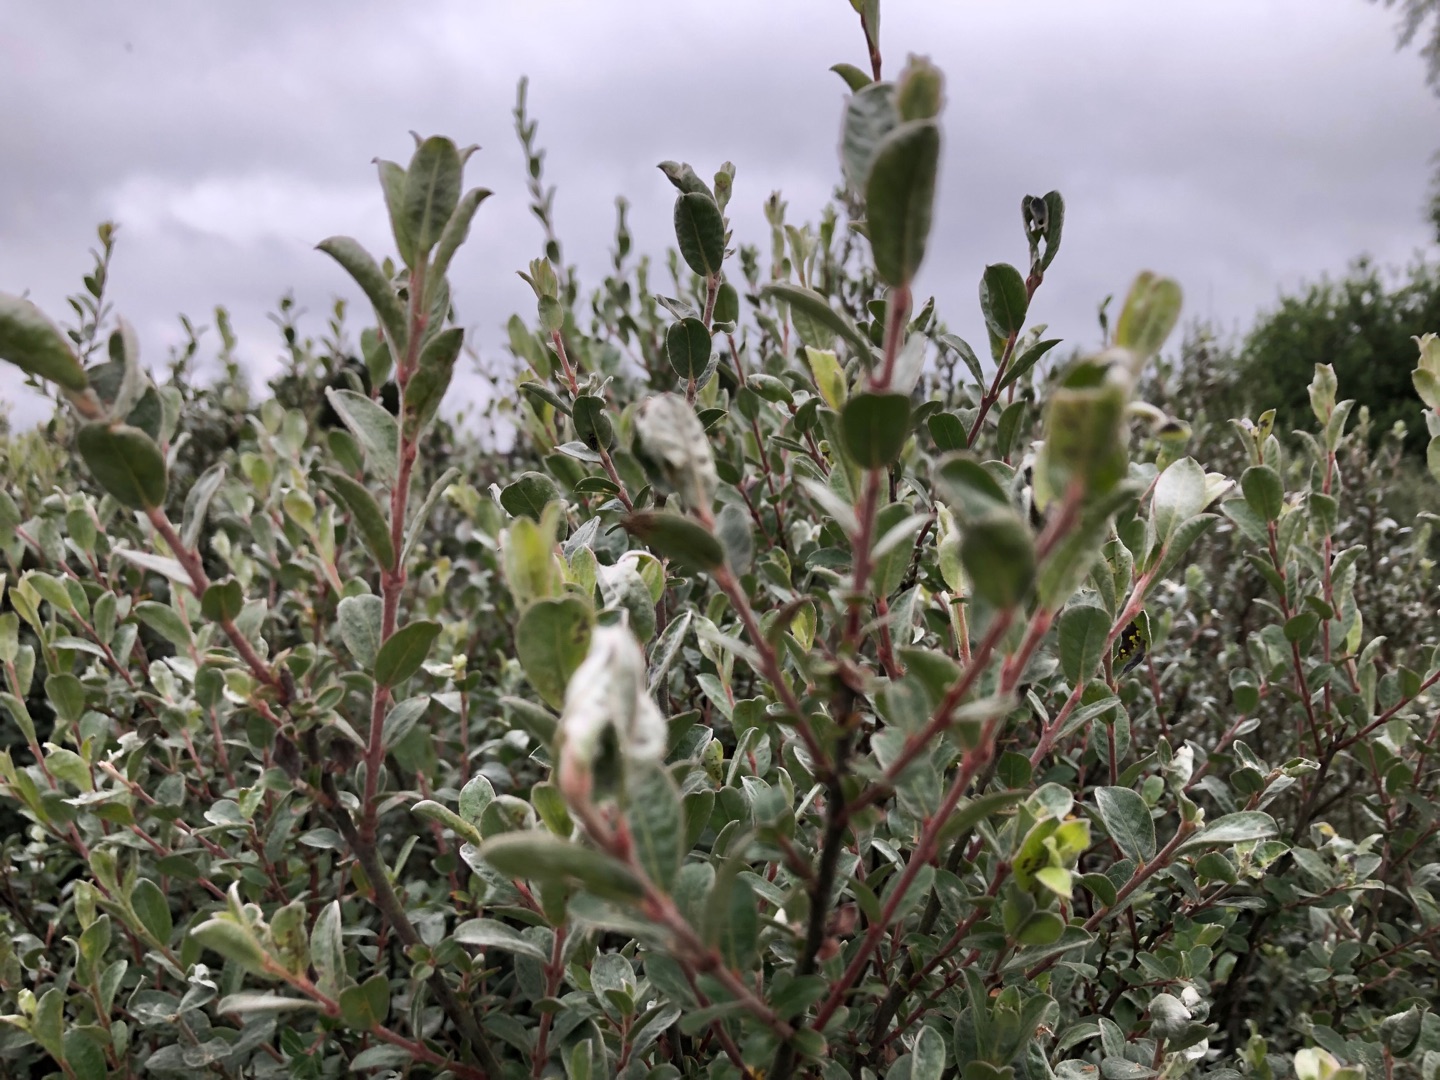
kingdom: Plantae
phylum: Tracheophyta
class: Magnoliopsida
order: Malpighiales
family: Salicaceae
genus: Salix
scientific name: Salix repens
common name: Krybende pil
